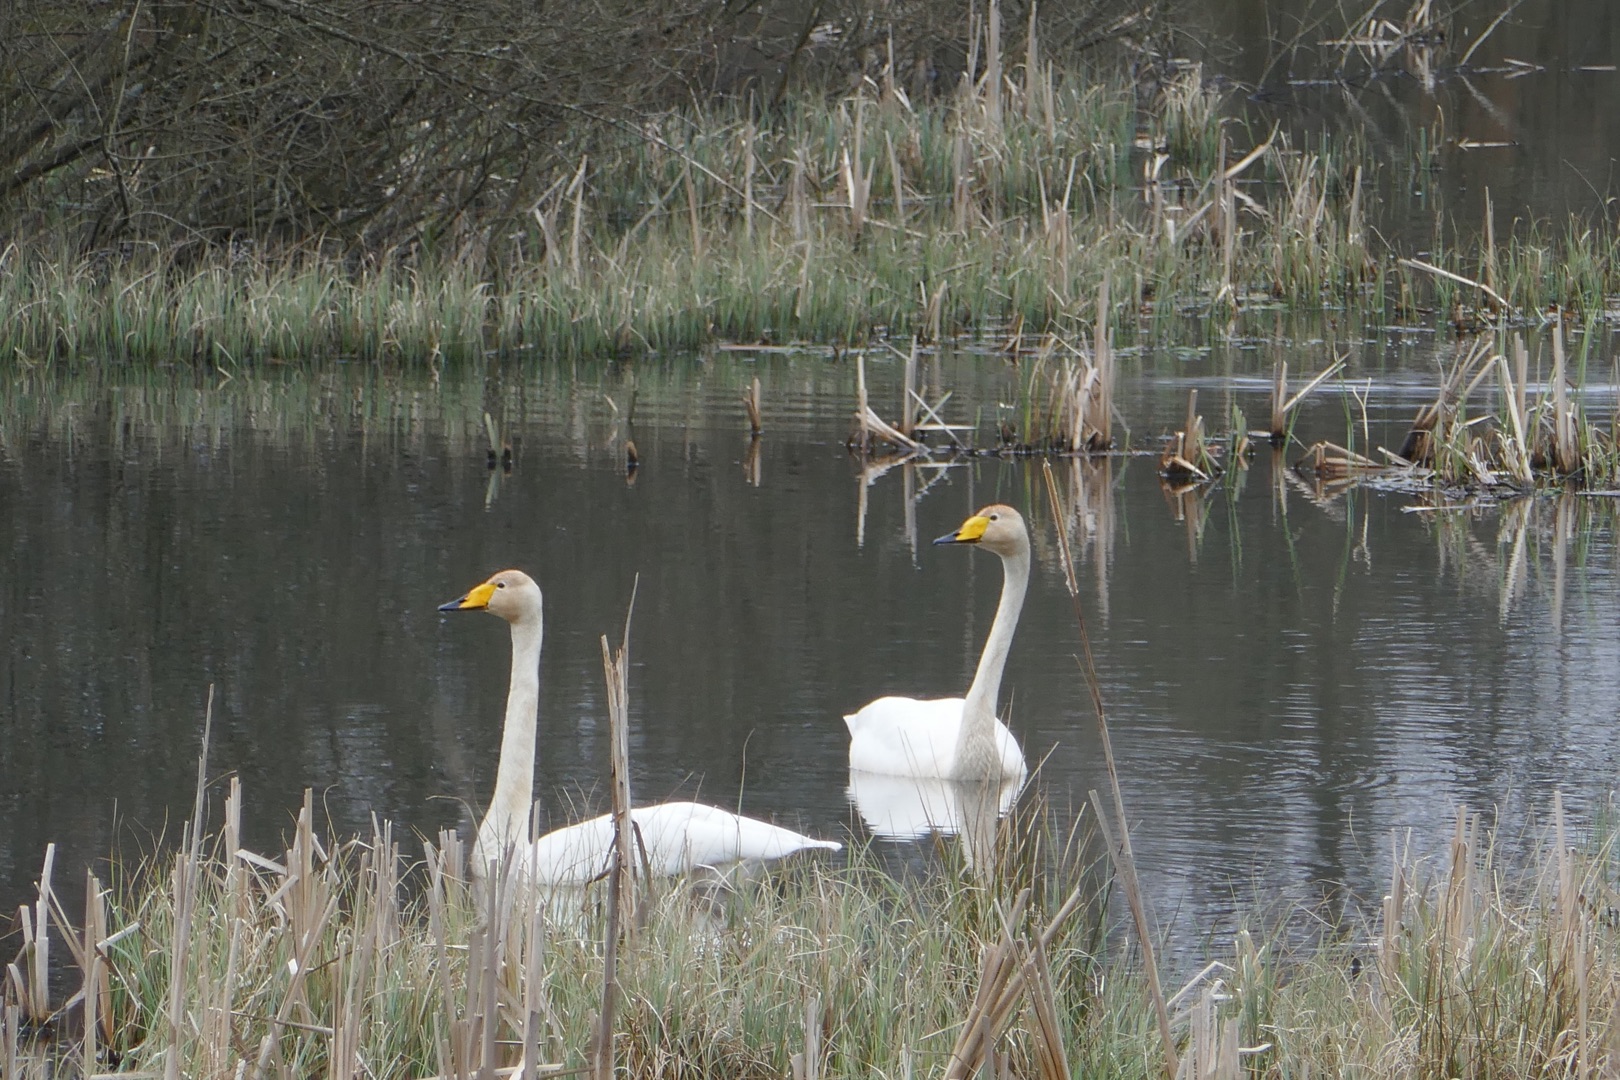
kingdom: Animalia
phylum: Chordata
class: Aves
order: Anseriformes
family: Anatidae
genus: Cygnus
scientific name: Cygnus cygnus
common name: Sangsvane
